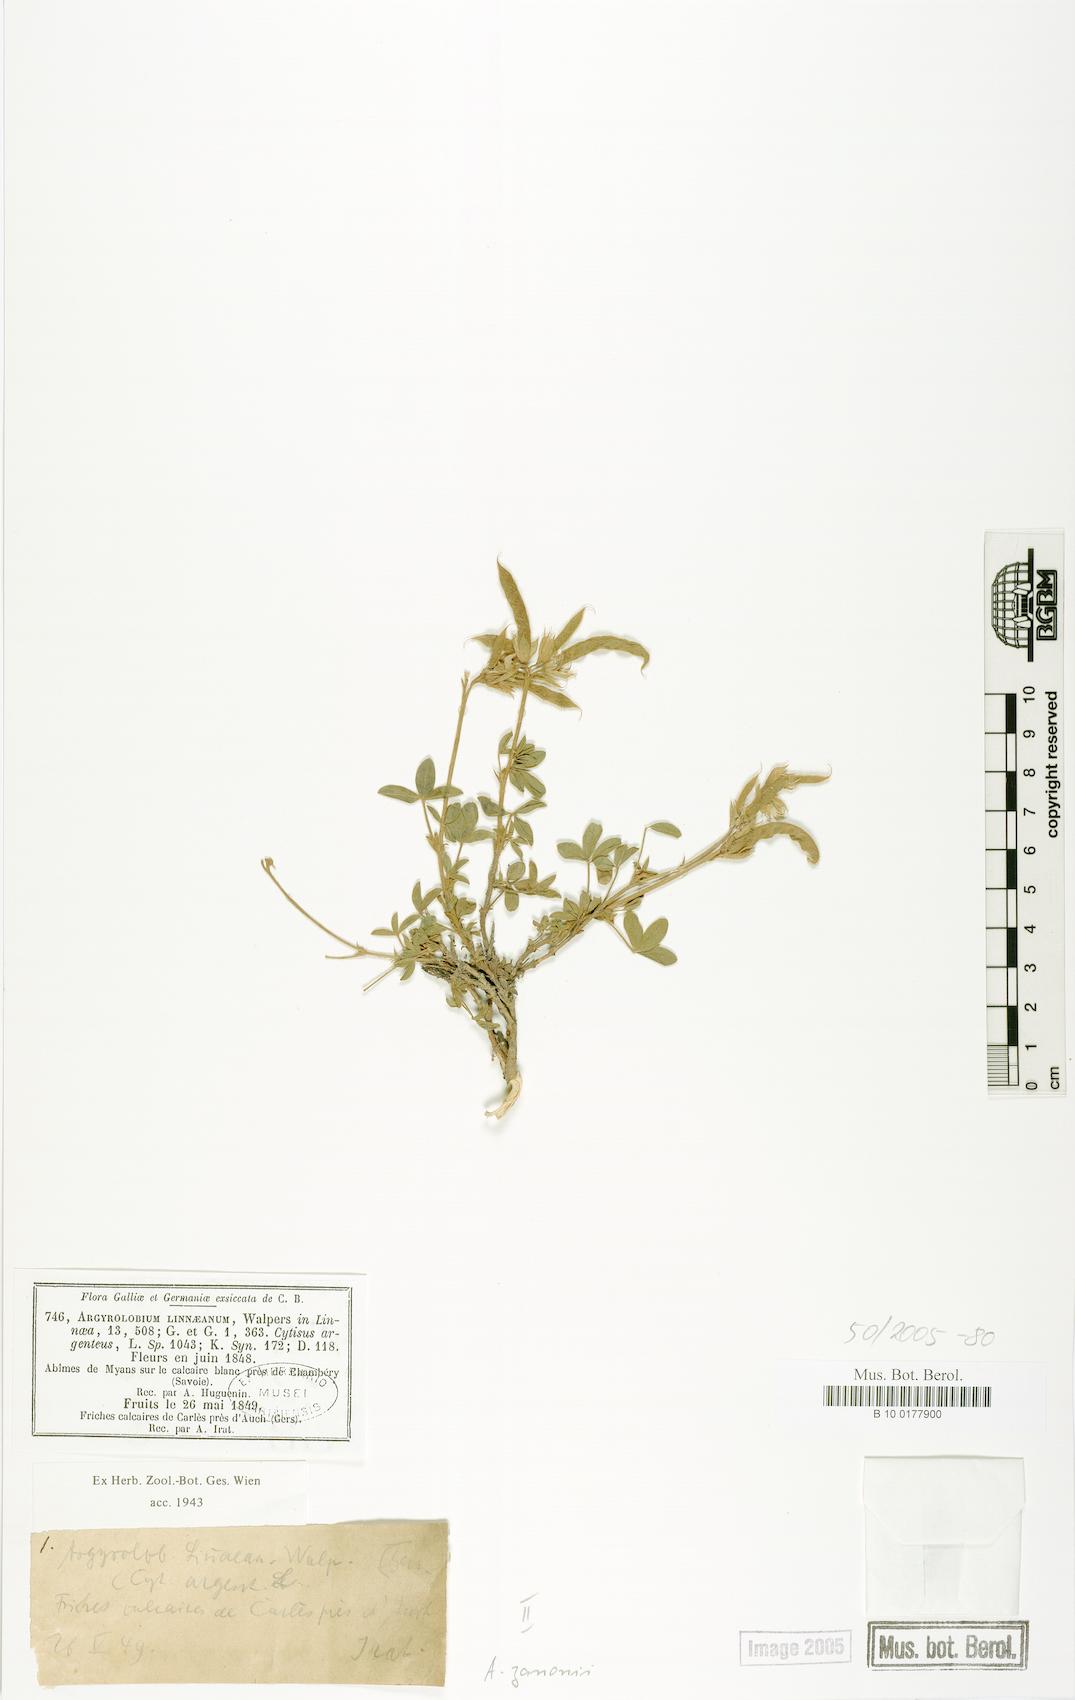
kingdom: Plantae
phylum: Tracheophyta
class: Magnoliopsida
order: Fabales
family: Fabaceae
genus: Argyrolobium
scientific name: Argyrolobium zanonii
